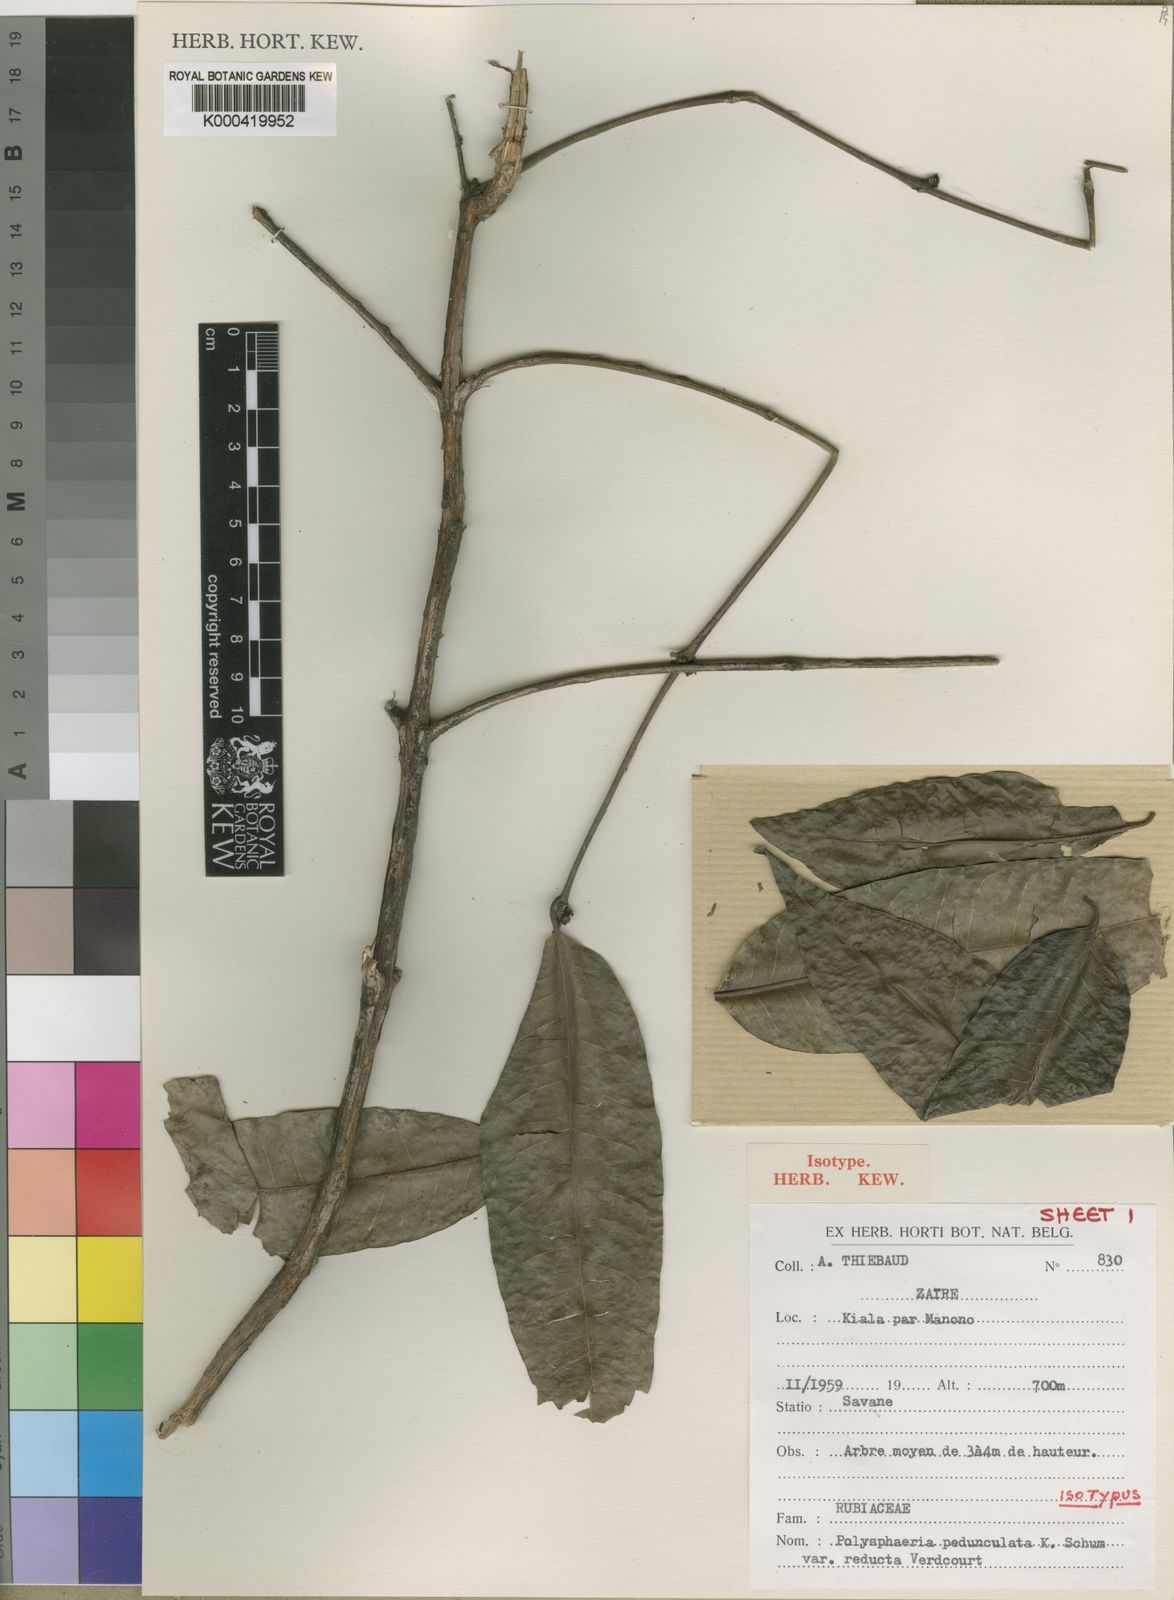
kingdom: Plantae
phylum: Tracheophyta
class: Magnoliopsida
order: Gentianales
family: Rubiaceae
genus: Polysphaeria
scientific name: Polysphaeria pedunculata
